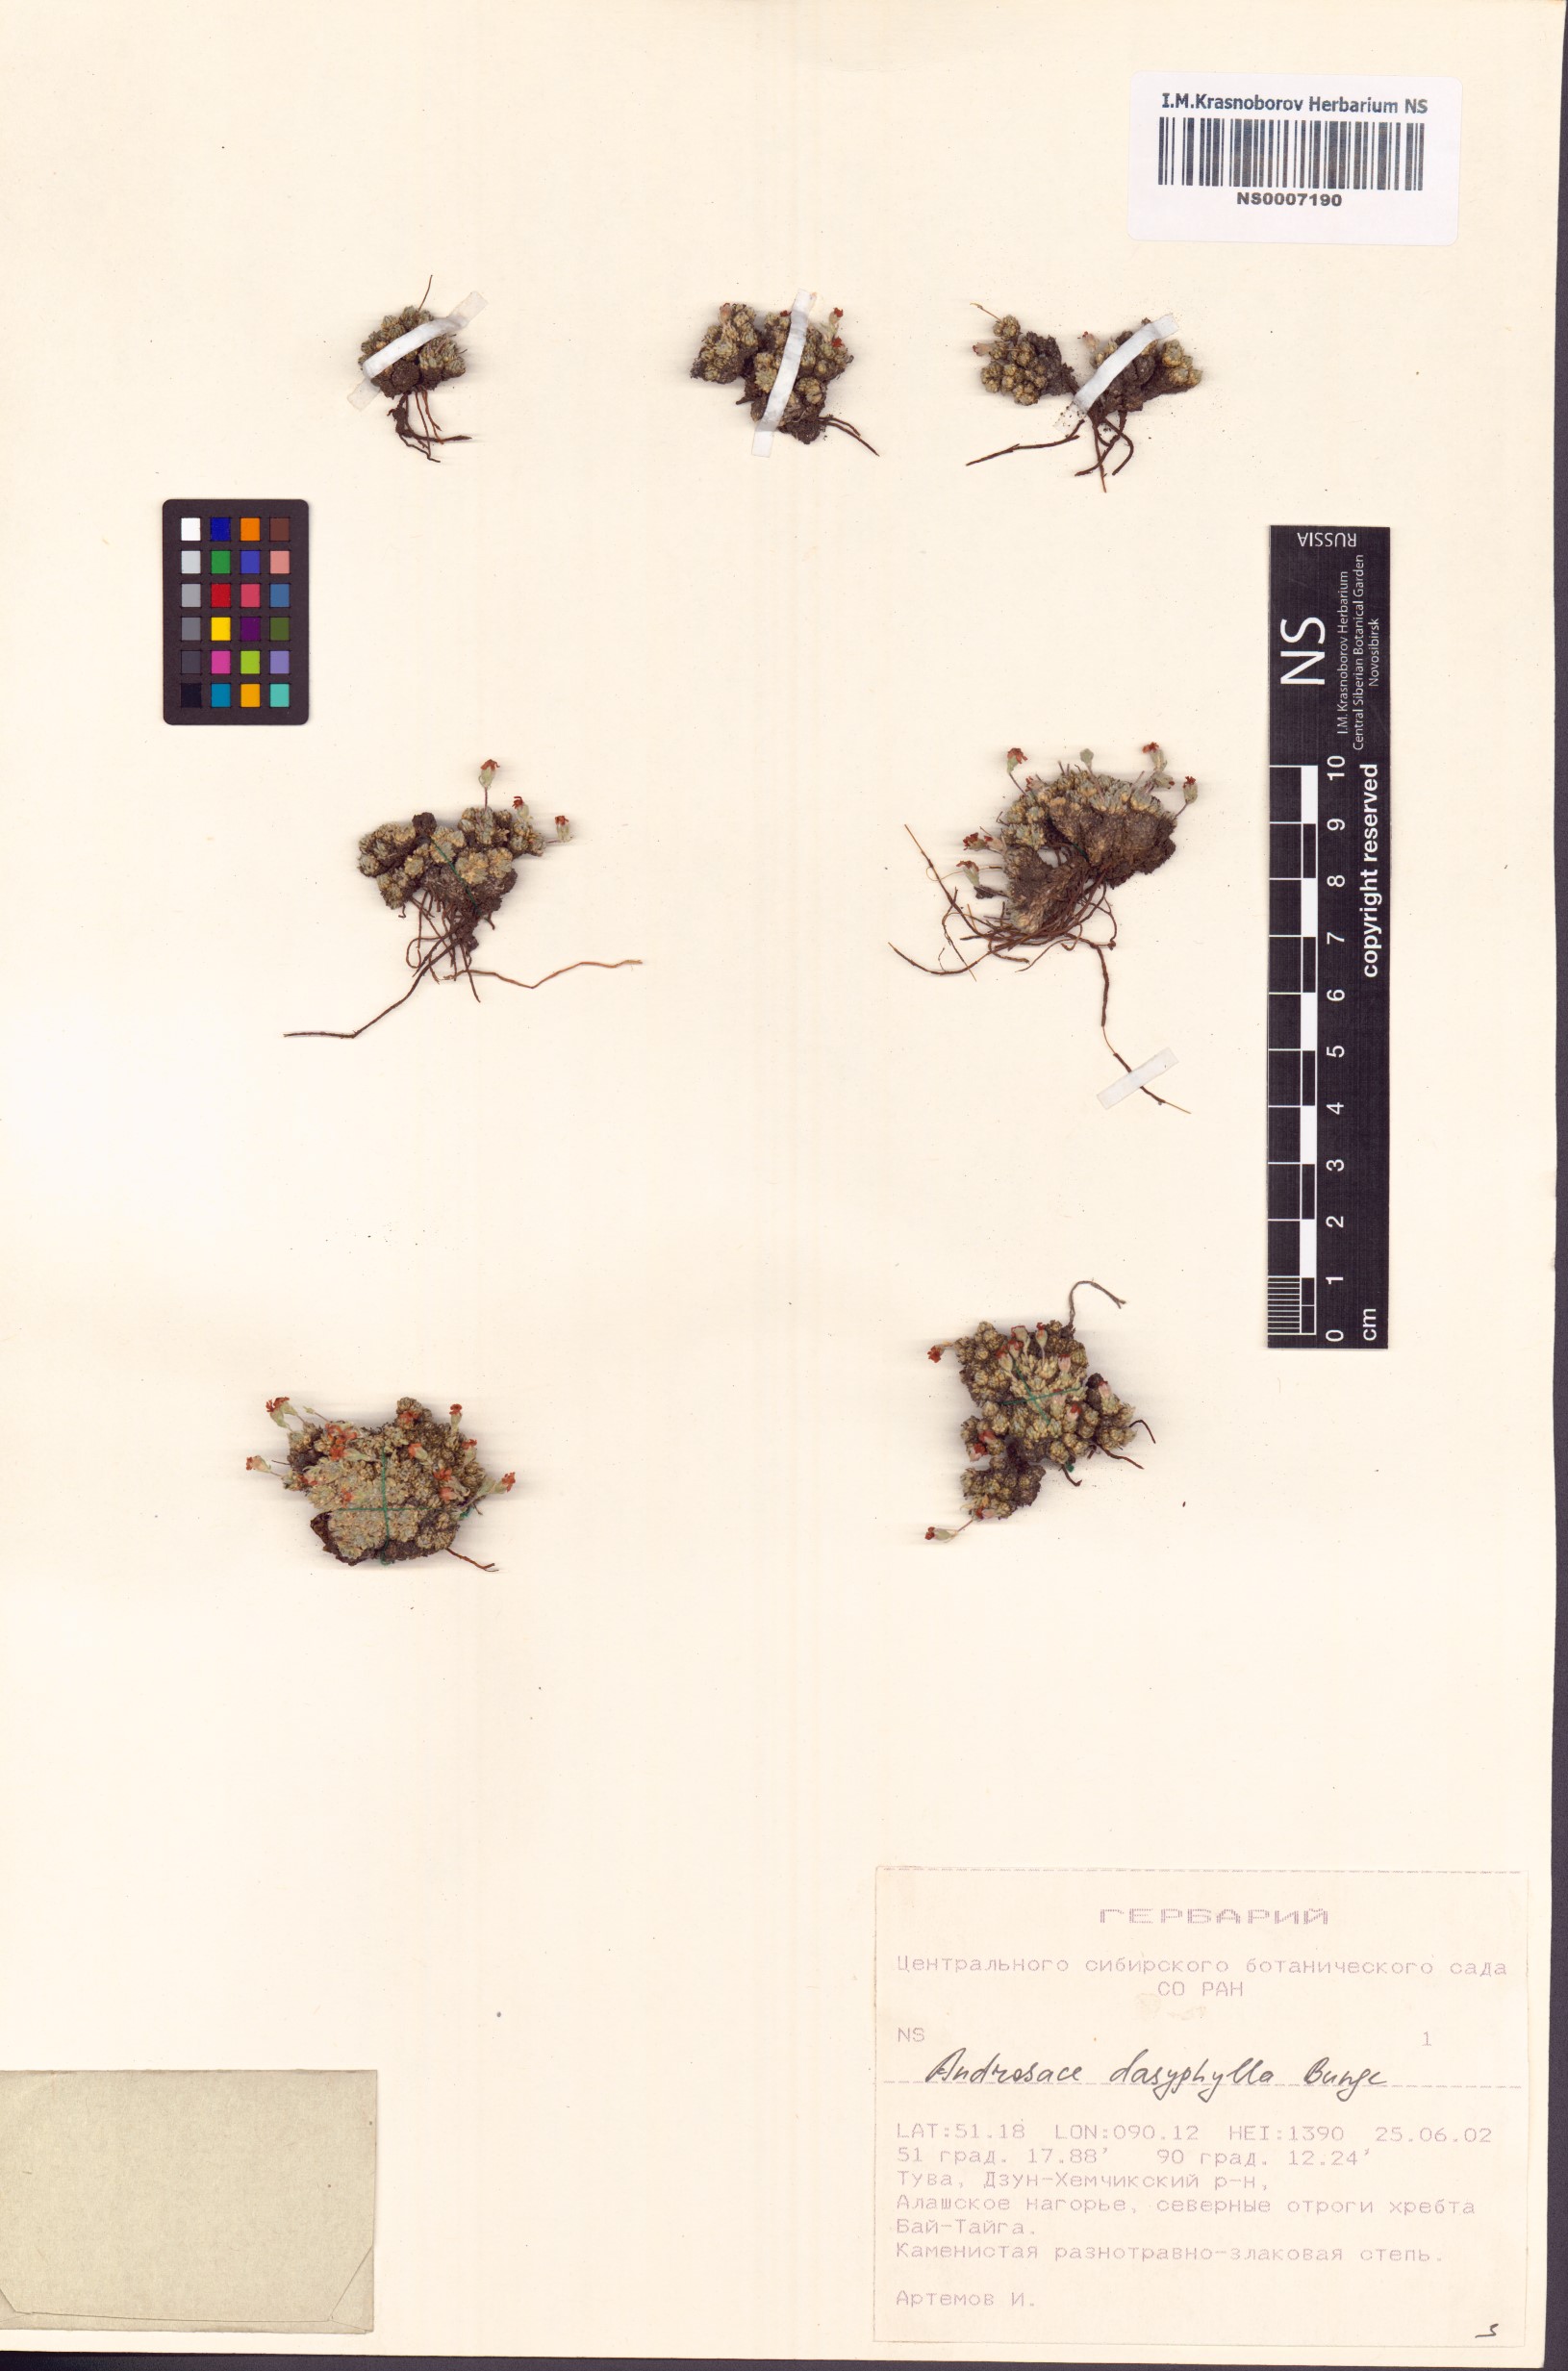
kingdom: Plantae
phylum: Tracheophyta
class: Magnoliopsida
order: Ericales
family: Primulaceae
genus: Androsace
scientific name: Androsace dasyphylla
